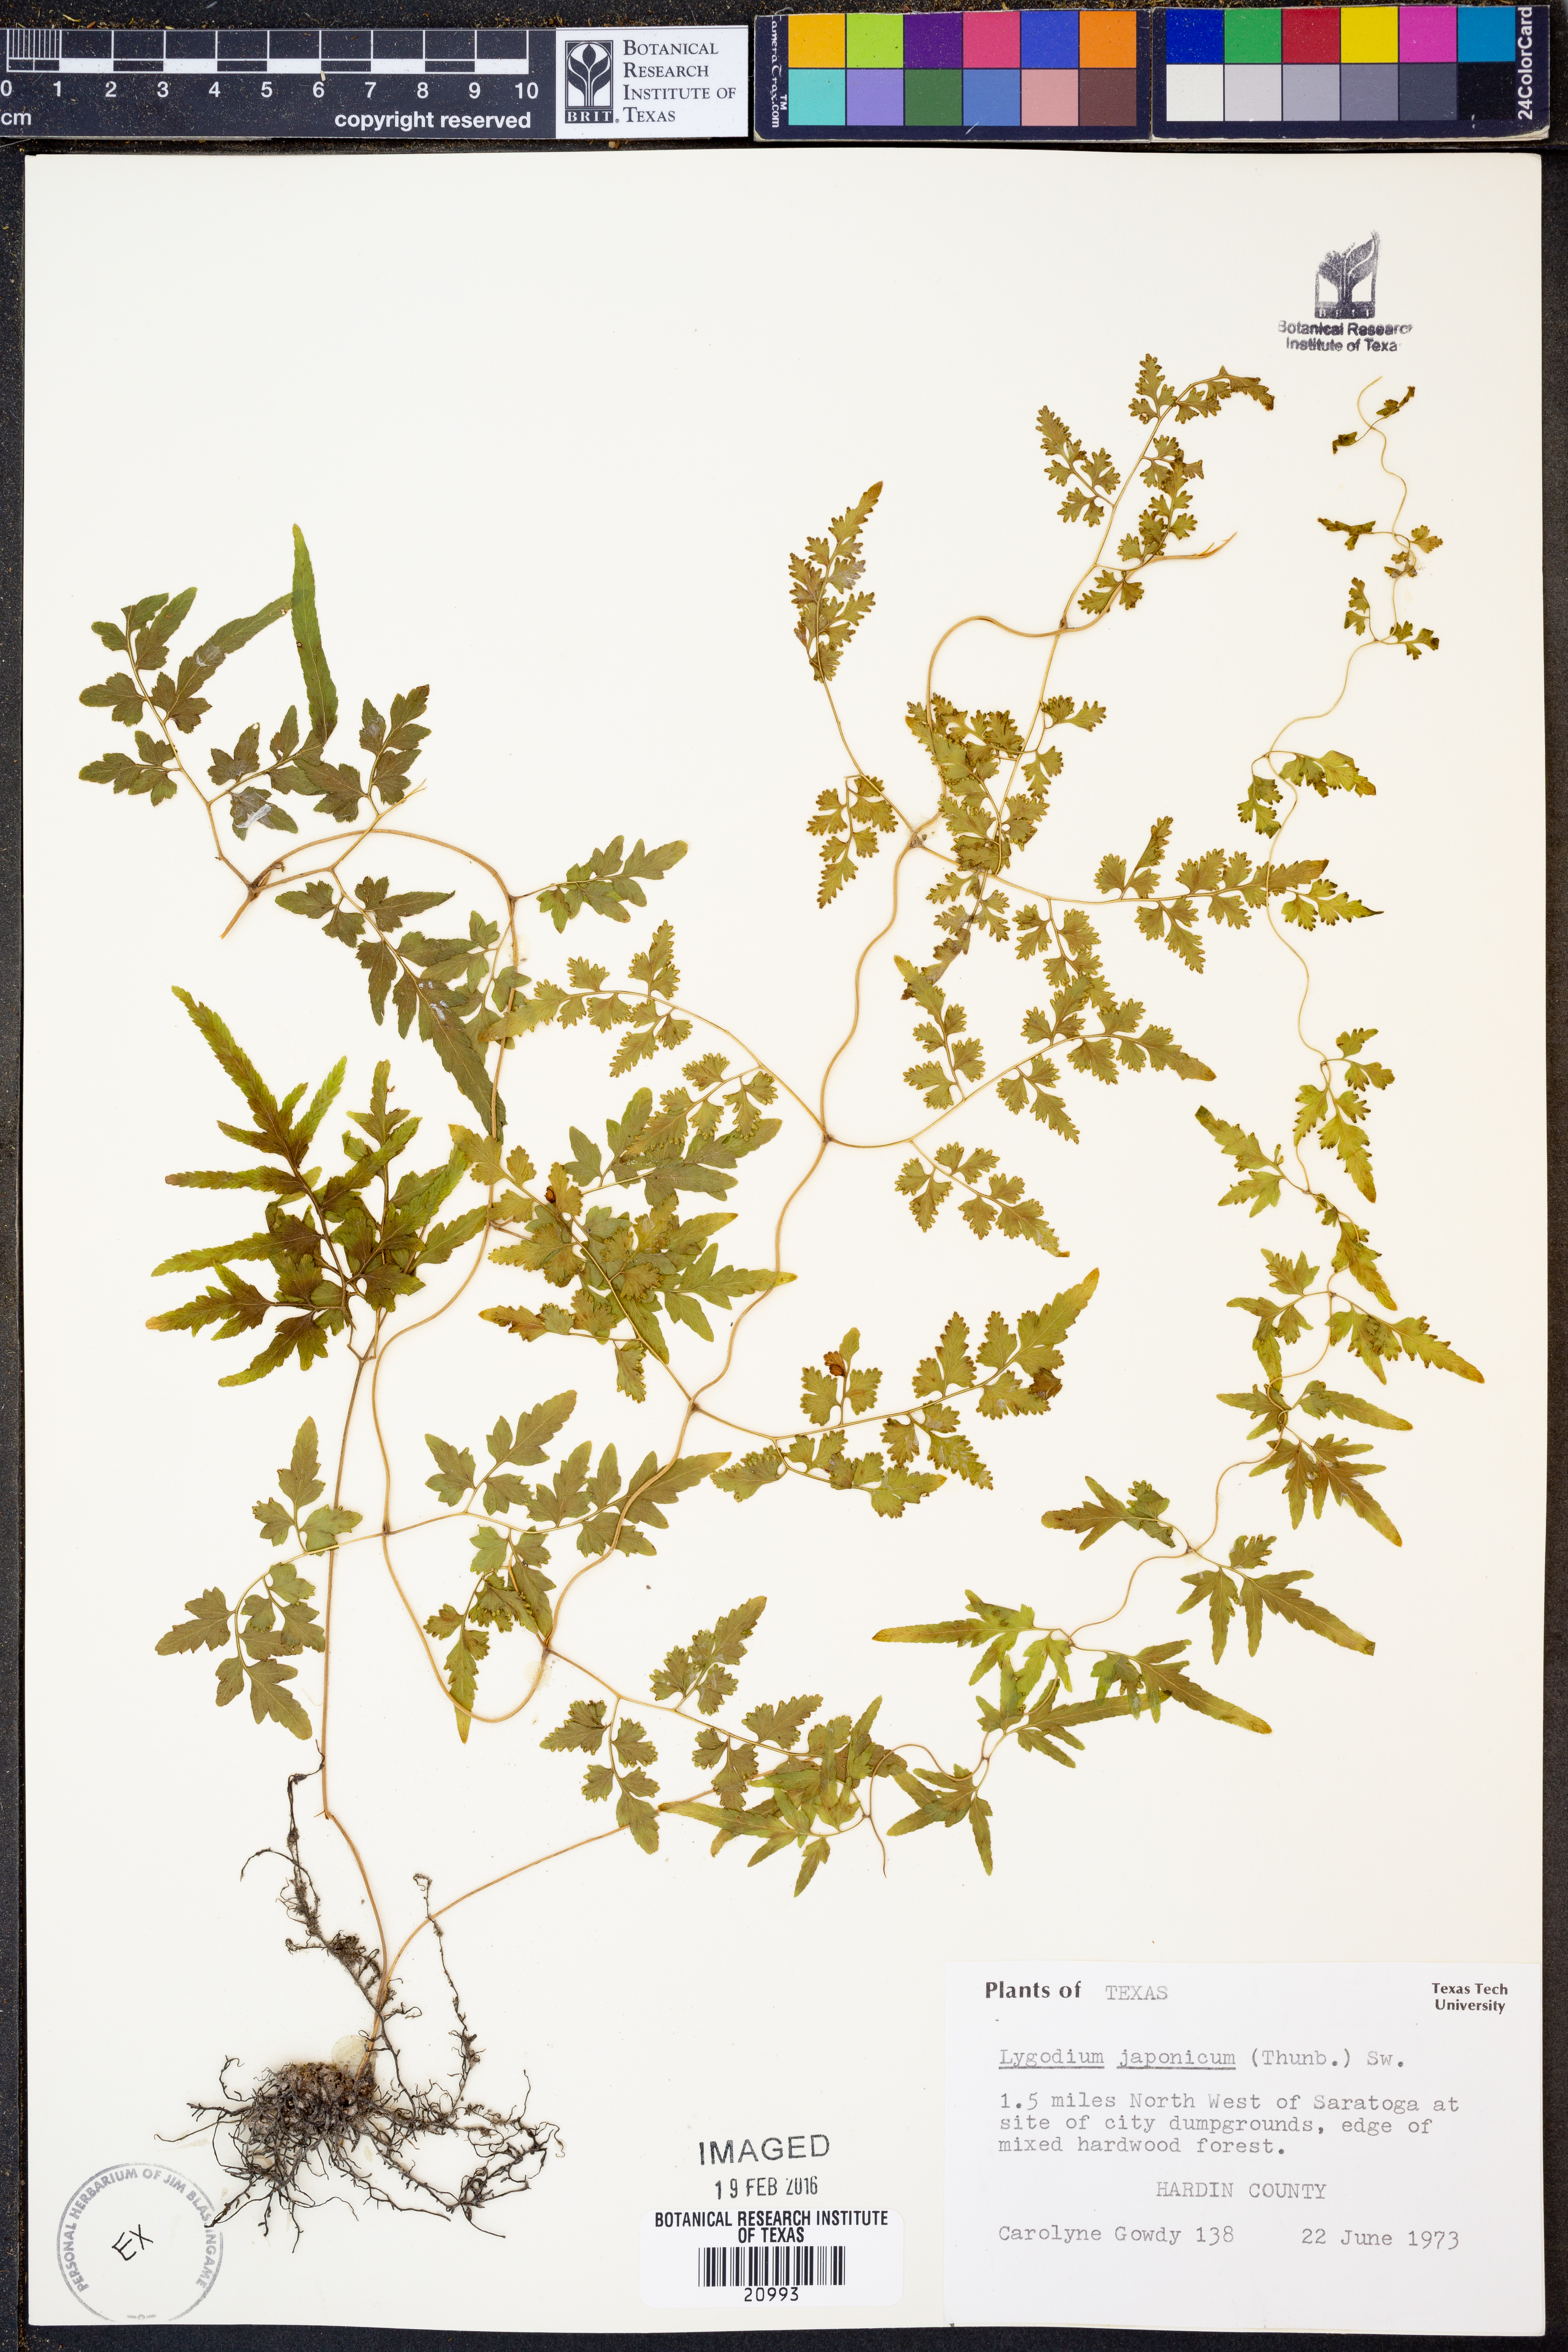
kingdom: Plantae
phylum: Tracheophyta
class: Polypodiopsida
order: Schizaeales
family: Lygodiaceae
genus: Lygodium
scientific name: Lygodium japonicum
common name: Japanese climbing fern
